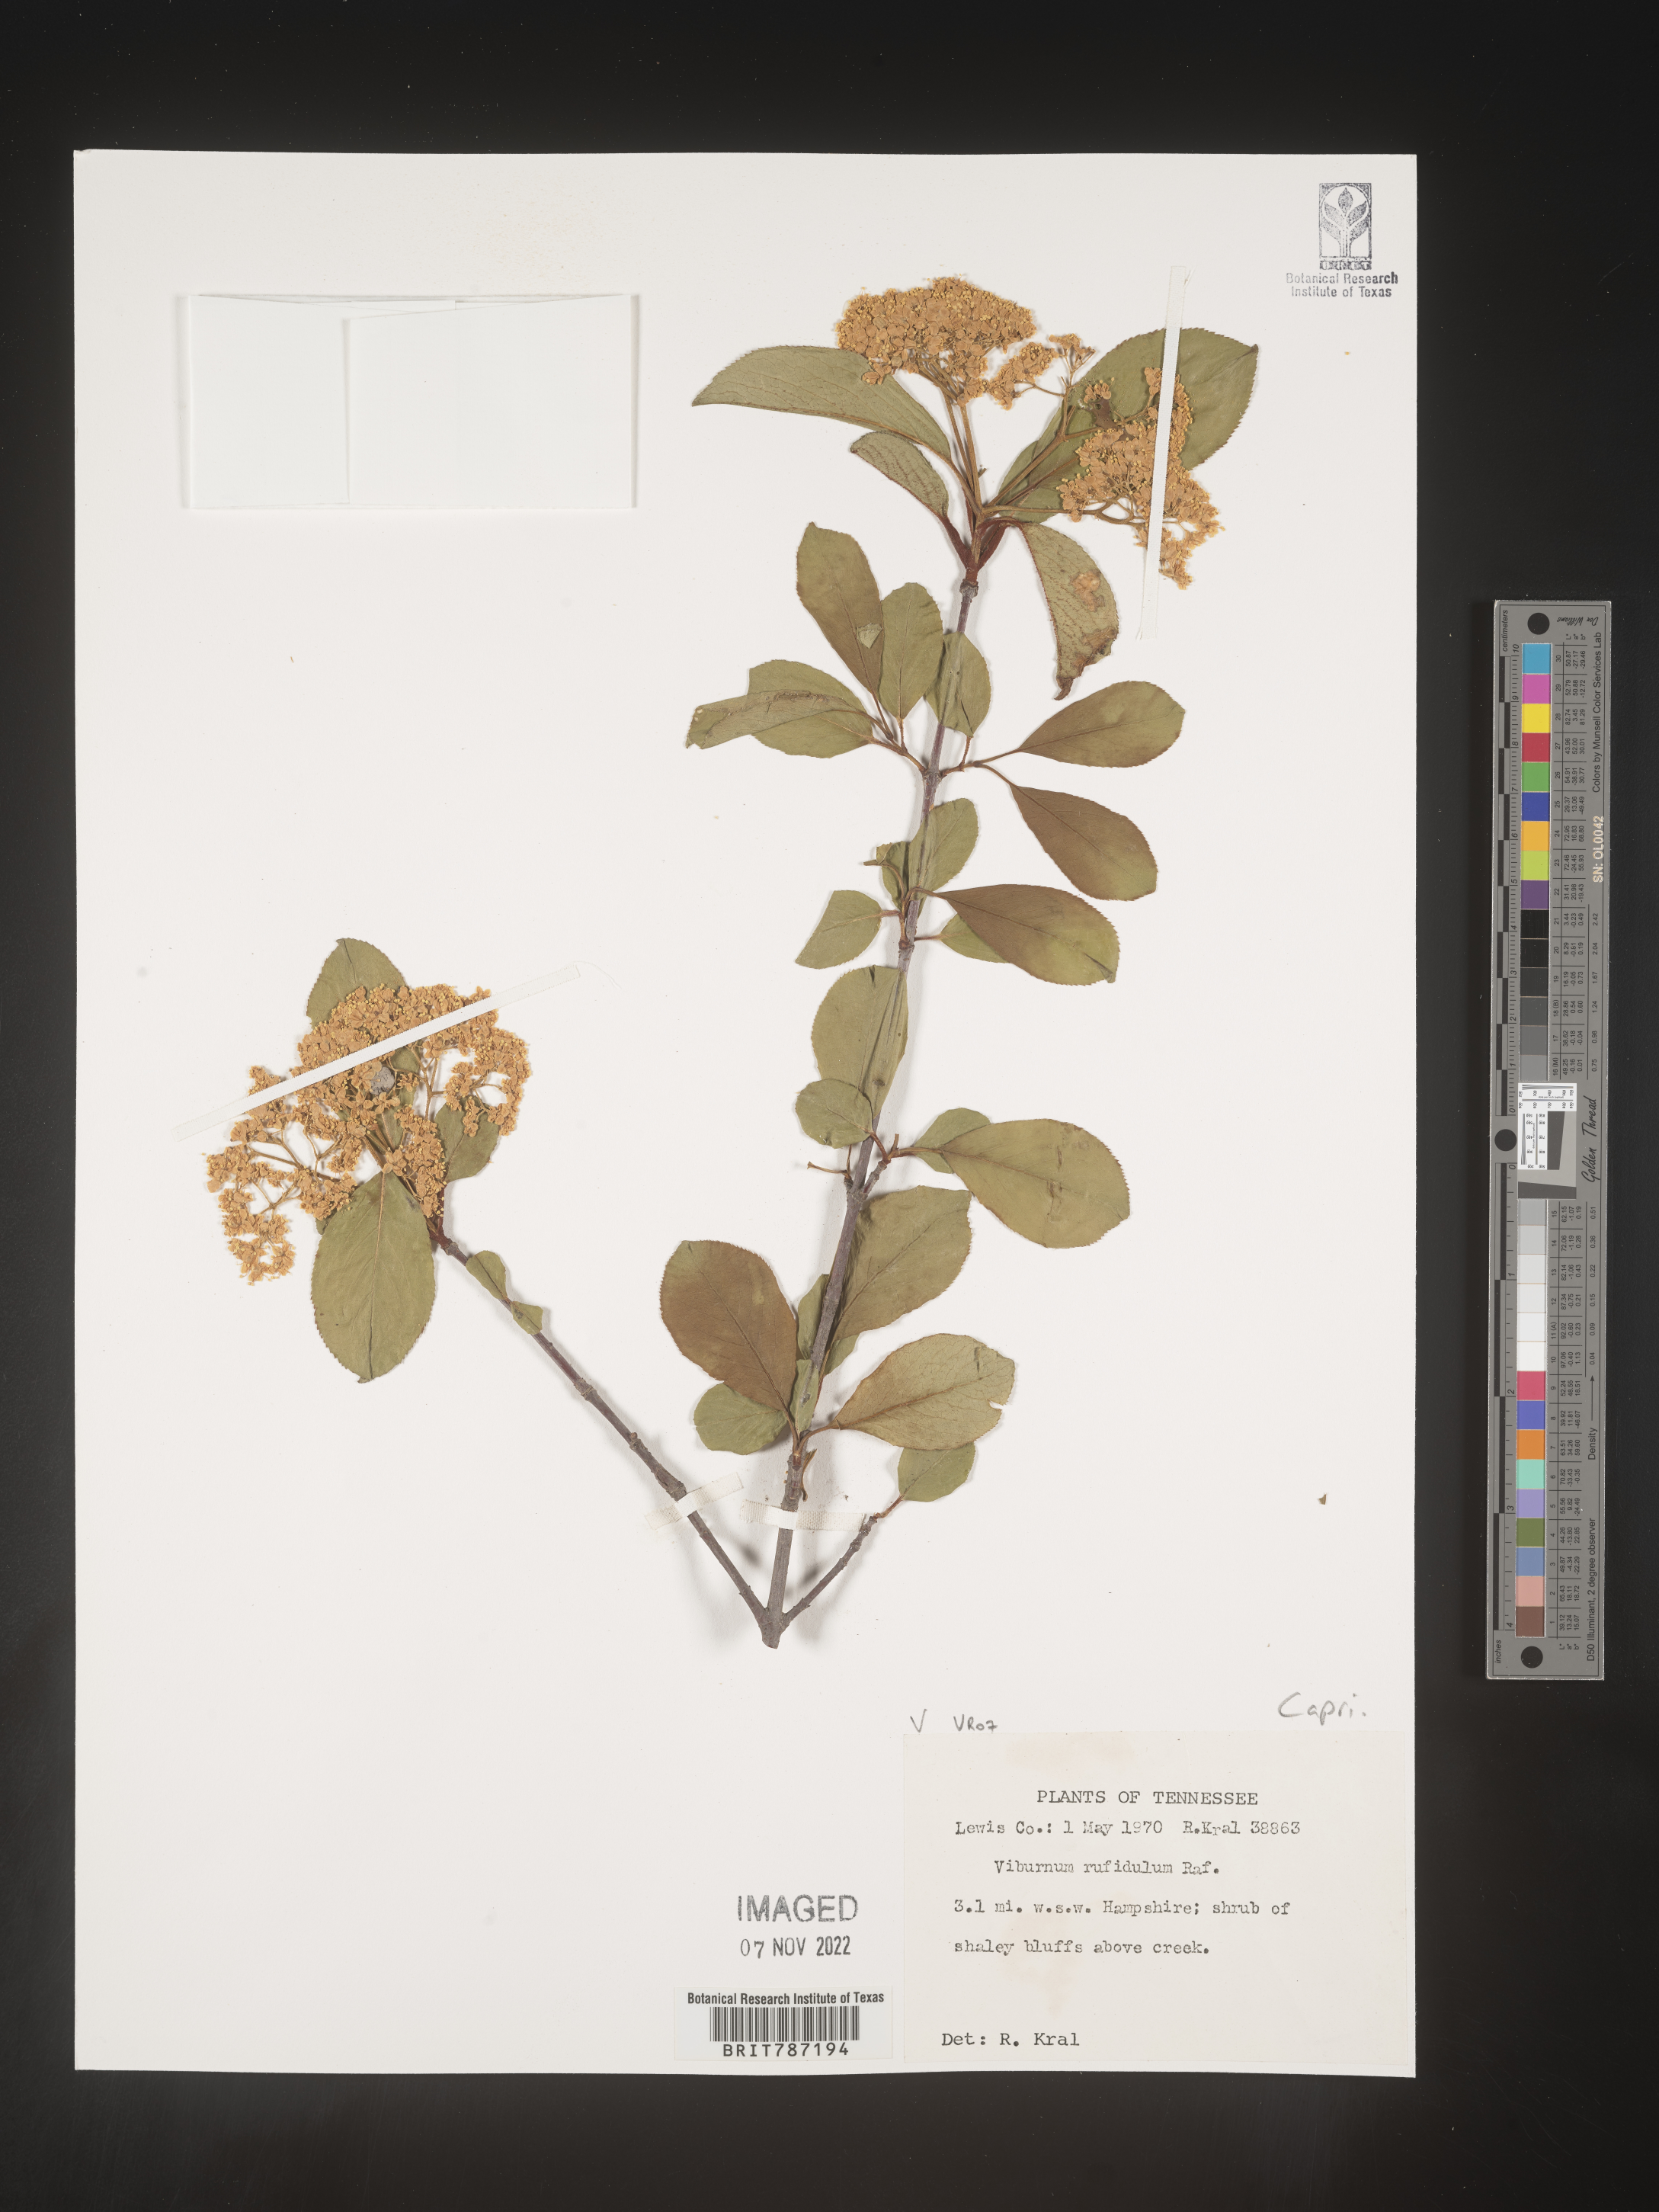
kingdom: Plantae
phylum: Tracheophyta
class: Magnoliopsida
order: Dipsacales
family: Viburnaceae
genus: Viburnum
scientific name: Viburnum rufidulum
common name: Blue haw
